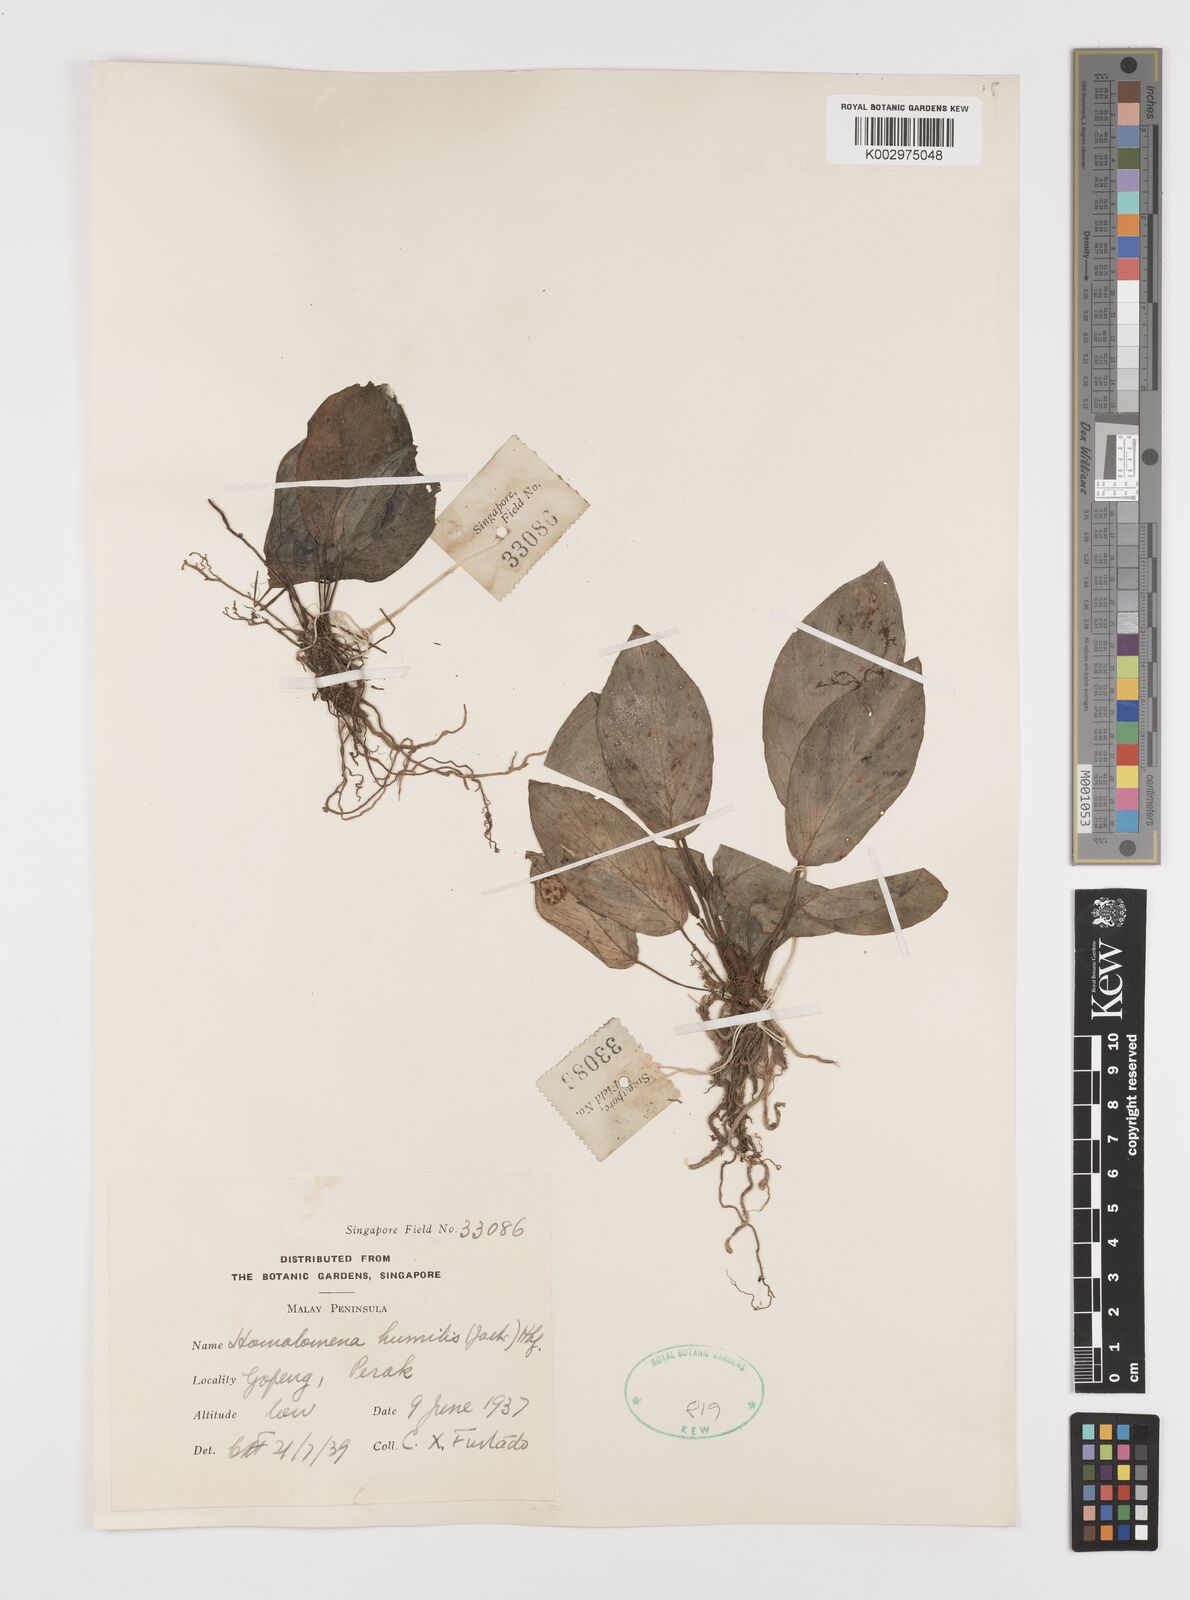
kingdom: Plantae
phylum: Tracheophyta
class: Liliopsida
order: Alismatales
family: Araceae
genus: Homalomena
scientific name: Homalomena humilis
